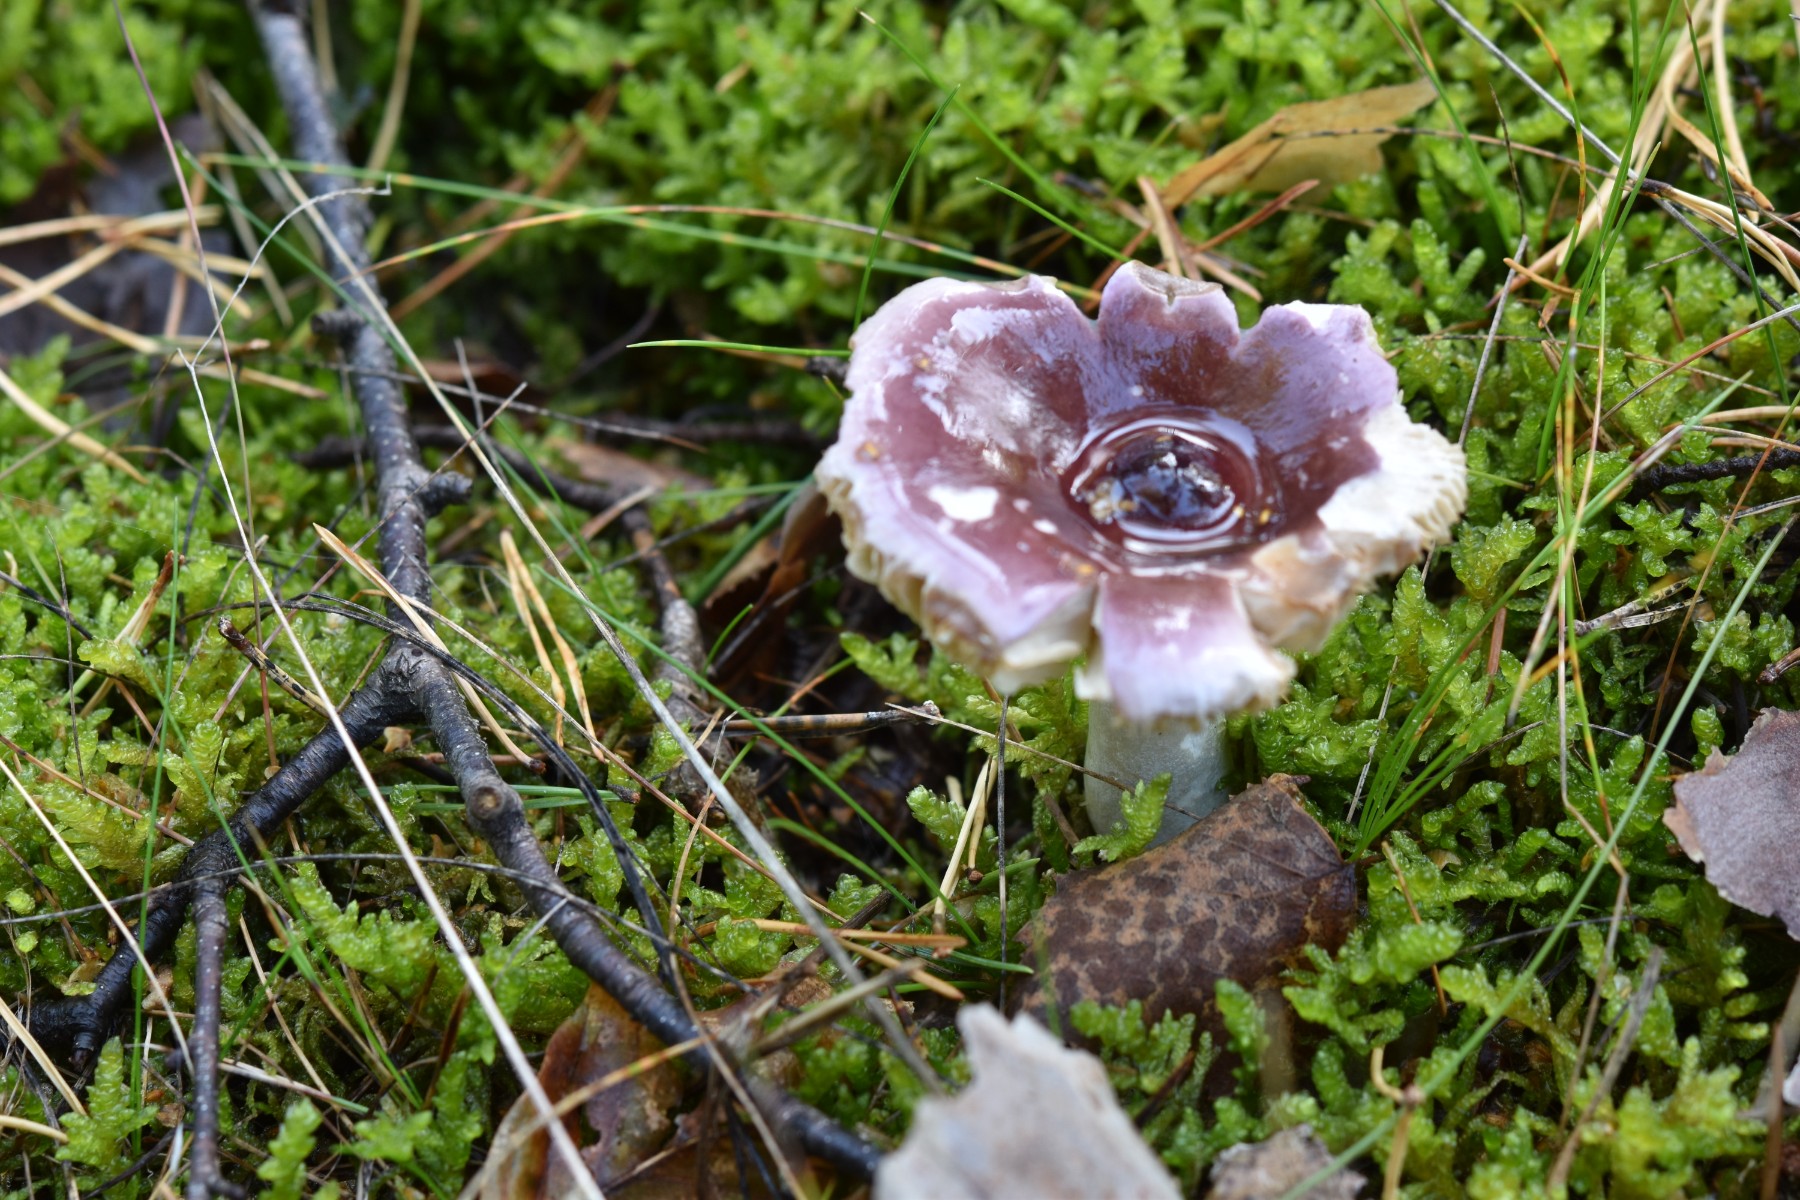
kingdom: Fungi
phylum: Basidiomycota
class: Agaricomycetes
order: Russulales
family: Russulaceae
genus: Russula
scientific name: Russula caerulea
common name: puklet skørhat
